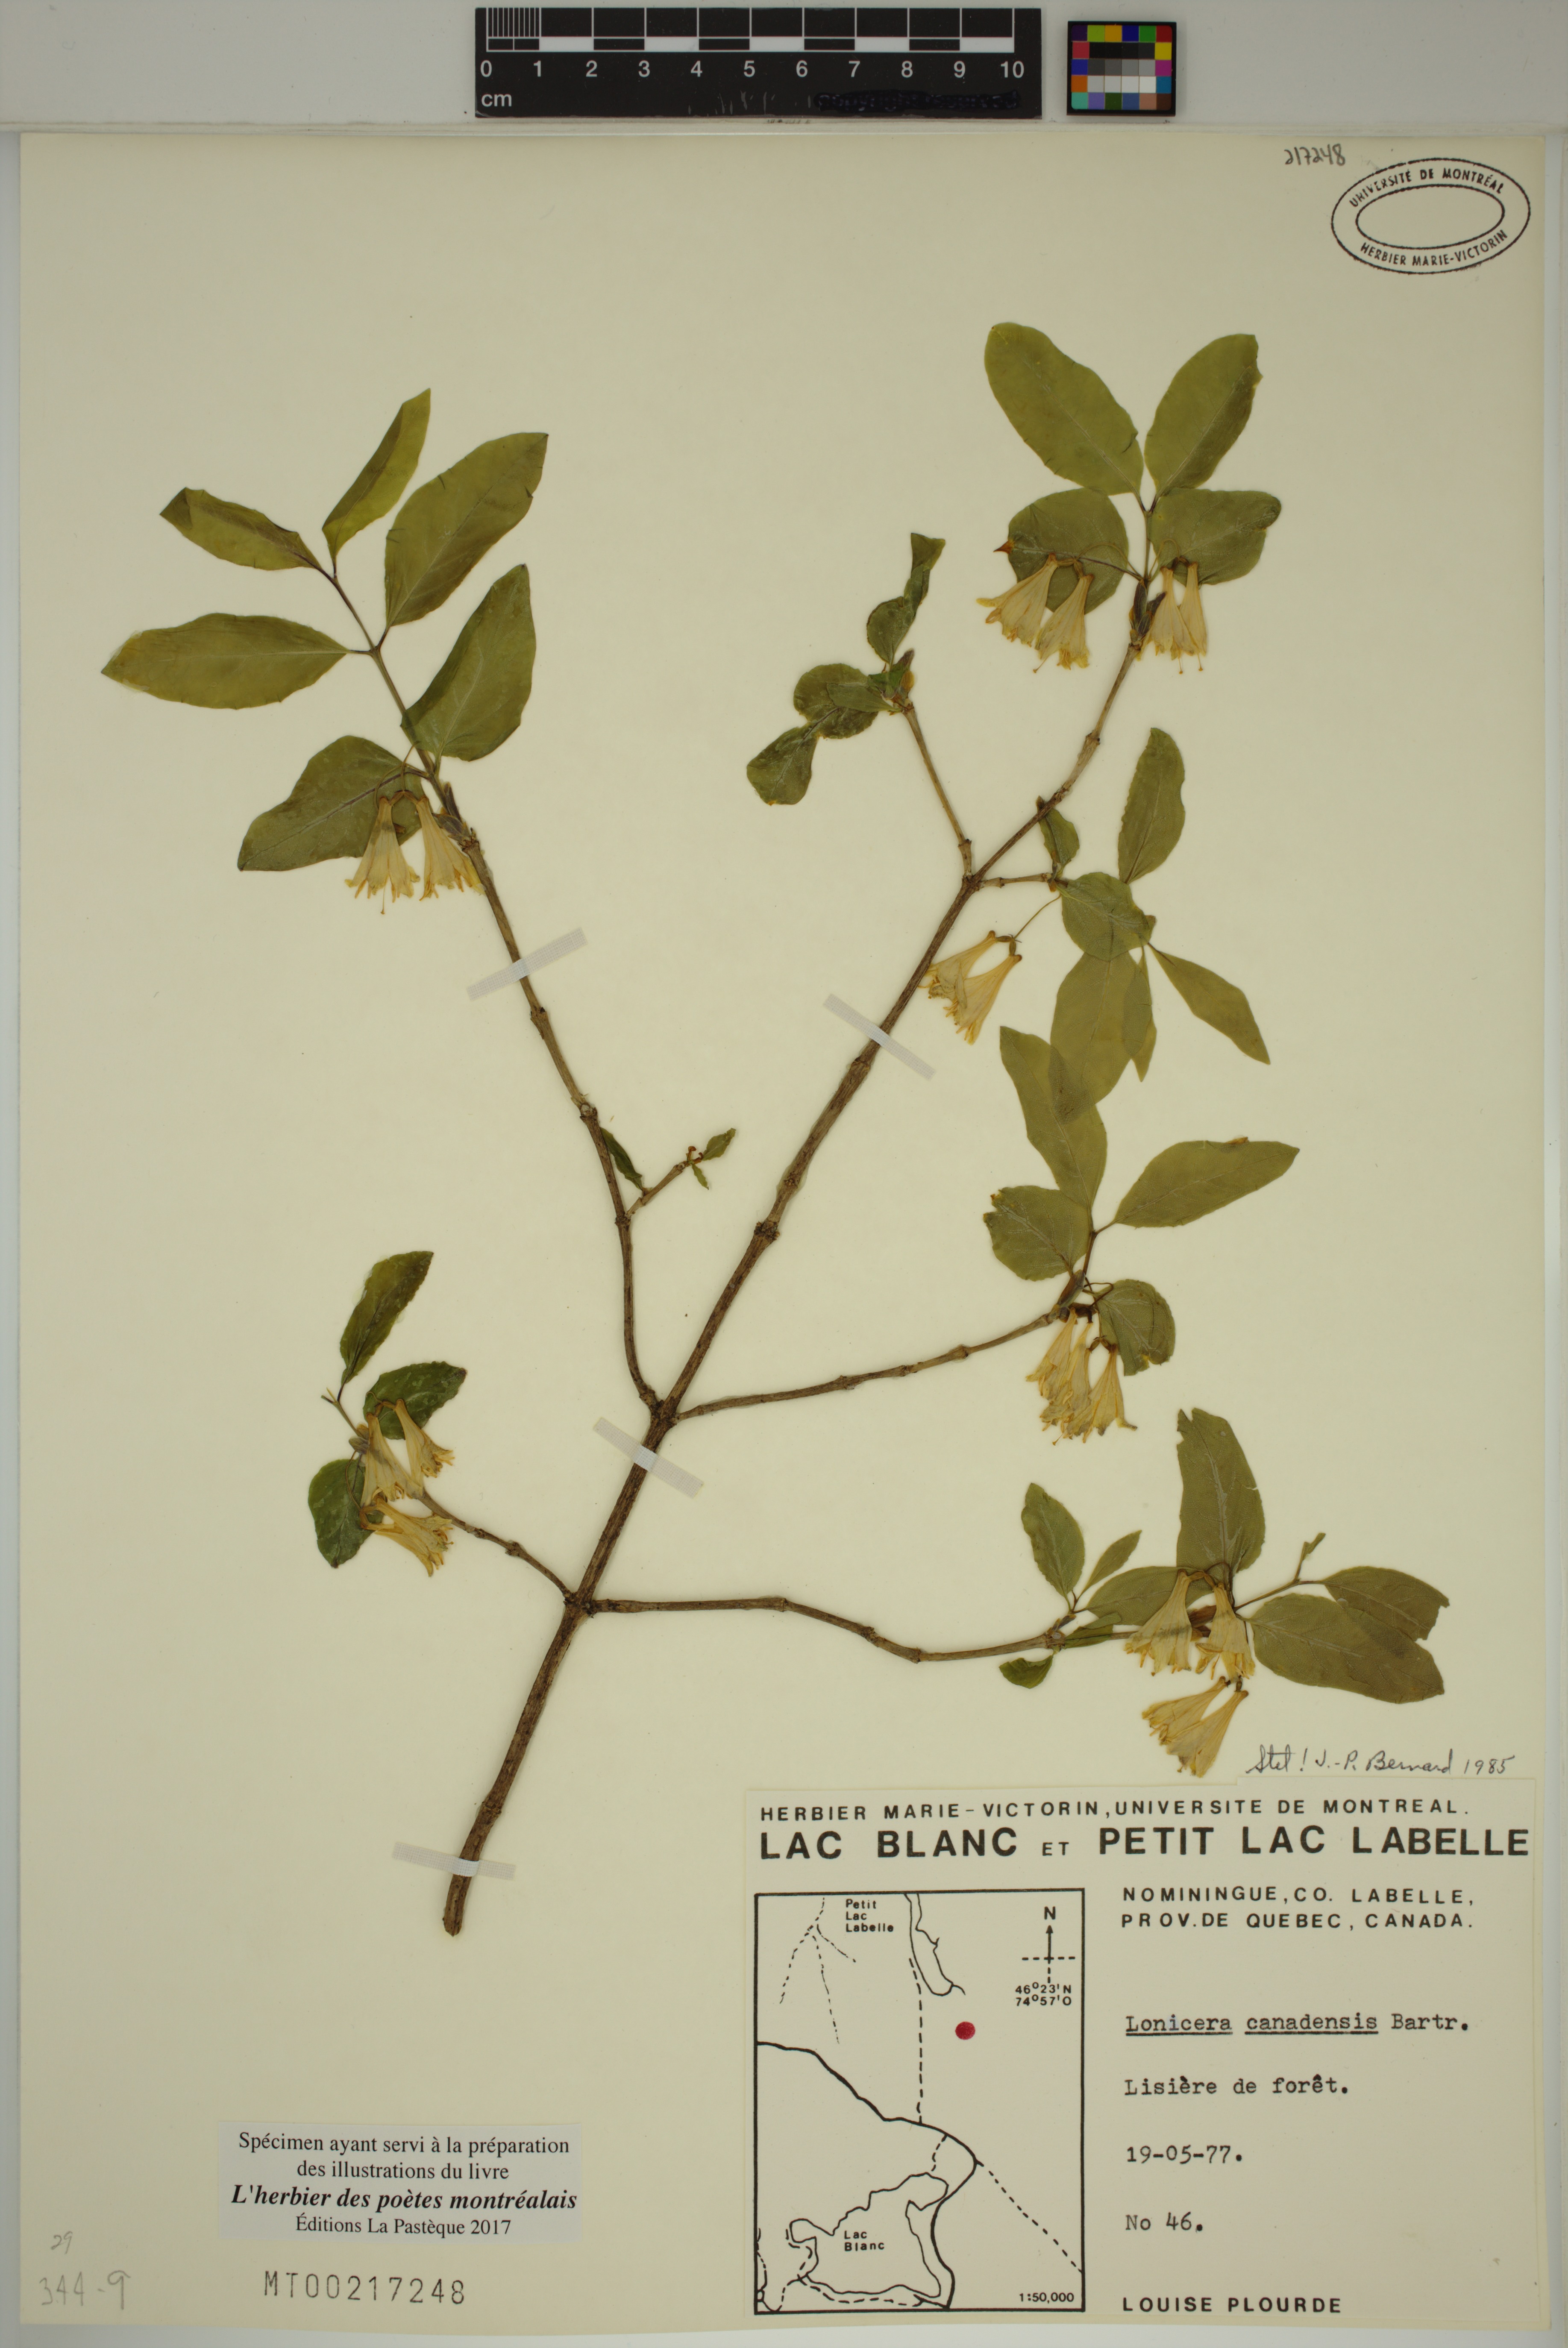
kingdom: Plantae
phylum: Tracheophyta
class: Magnoliopsida
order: Dipsacales
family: Caprifoliaceae
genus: Lonicera
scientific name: Lonicera canadensis
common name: American fly-honeysuckle
